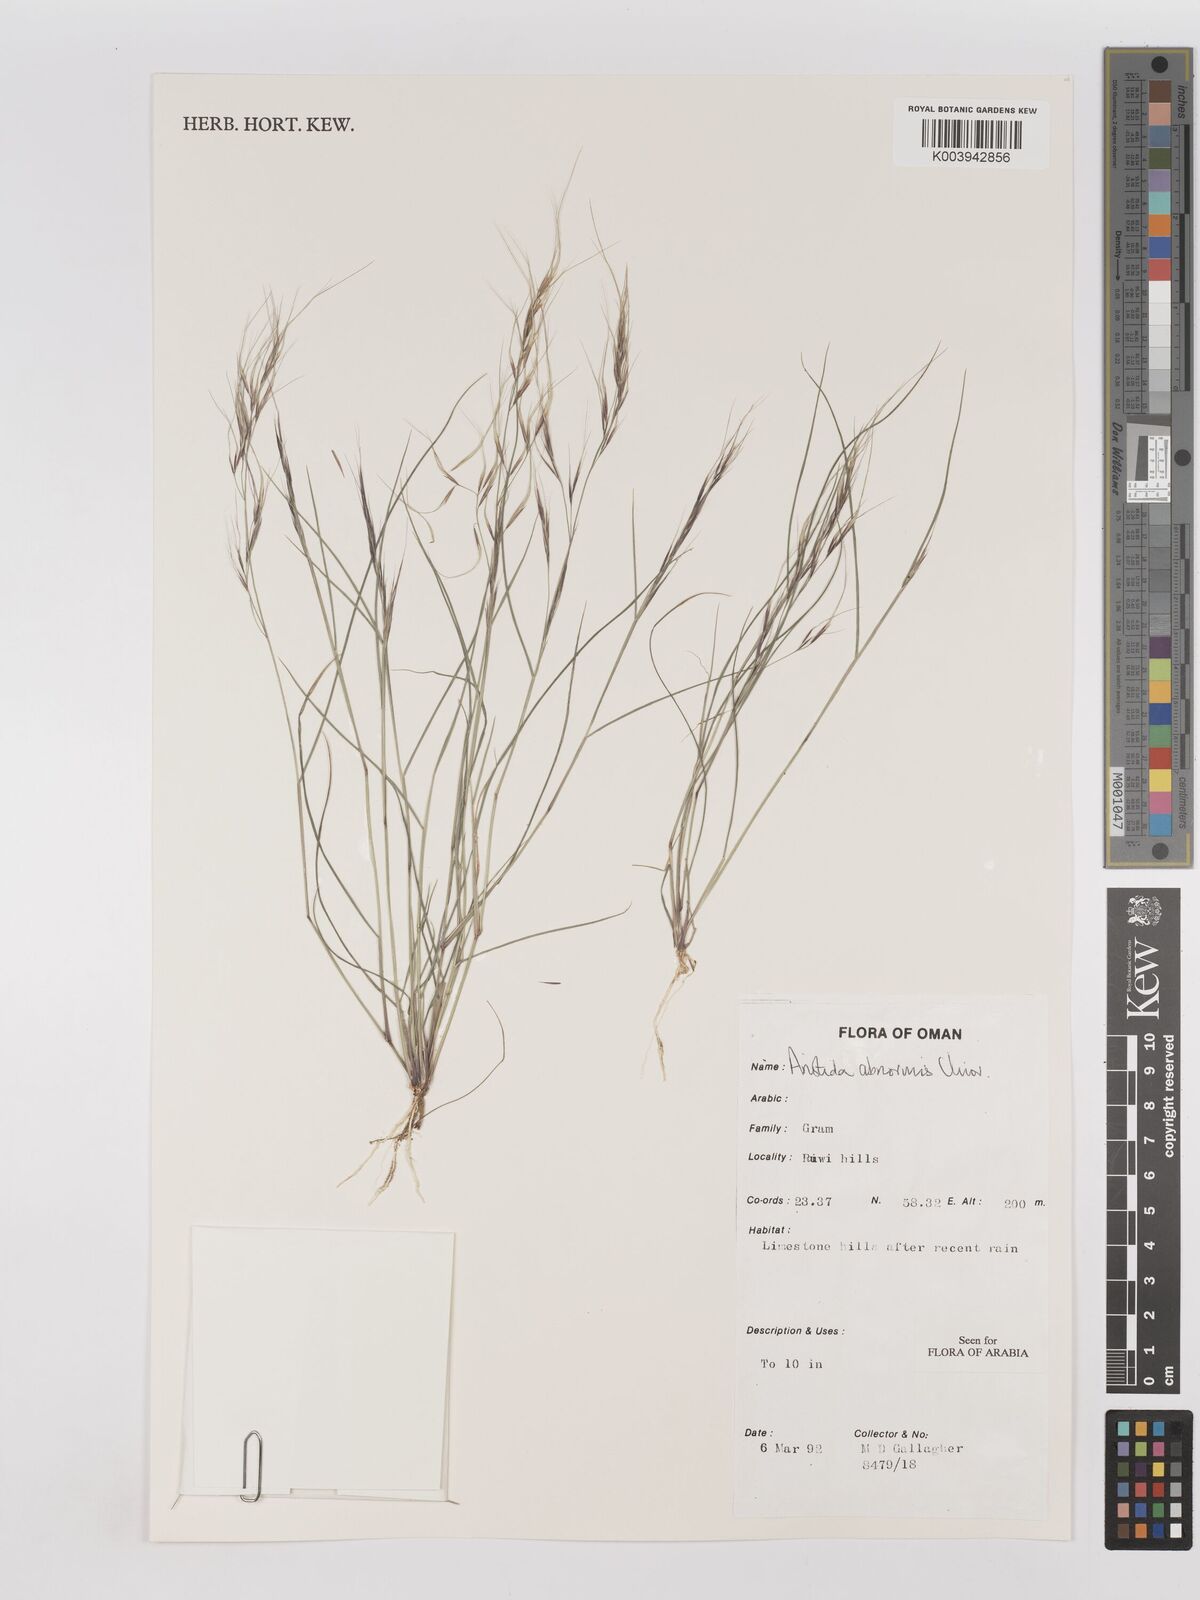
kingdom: Plantae
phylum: Tracheophyta
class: Liliopsida
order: Poales
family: Poaceae
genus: Aristida
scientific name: Aristida abnormis
